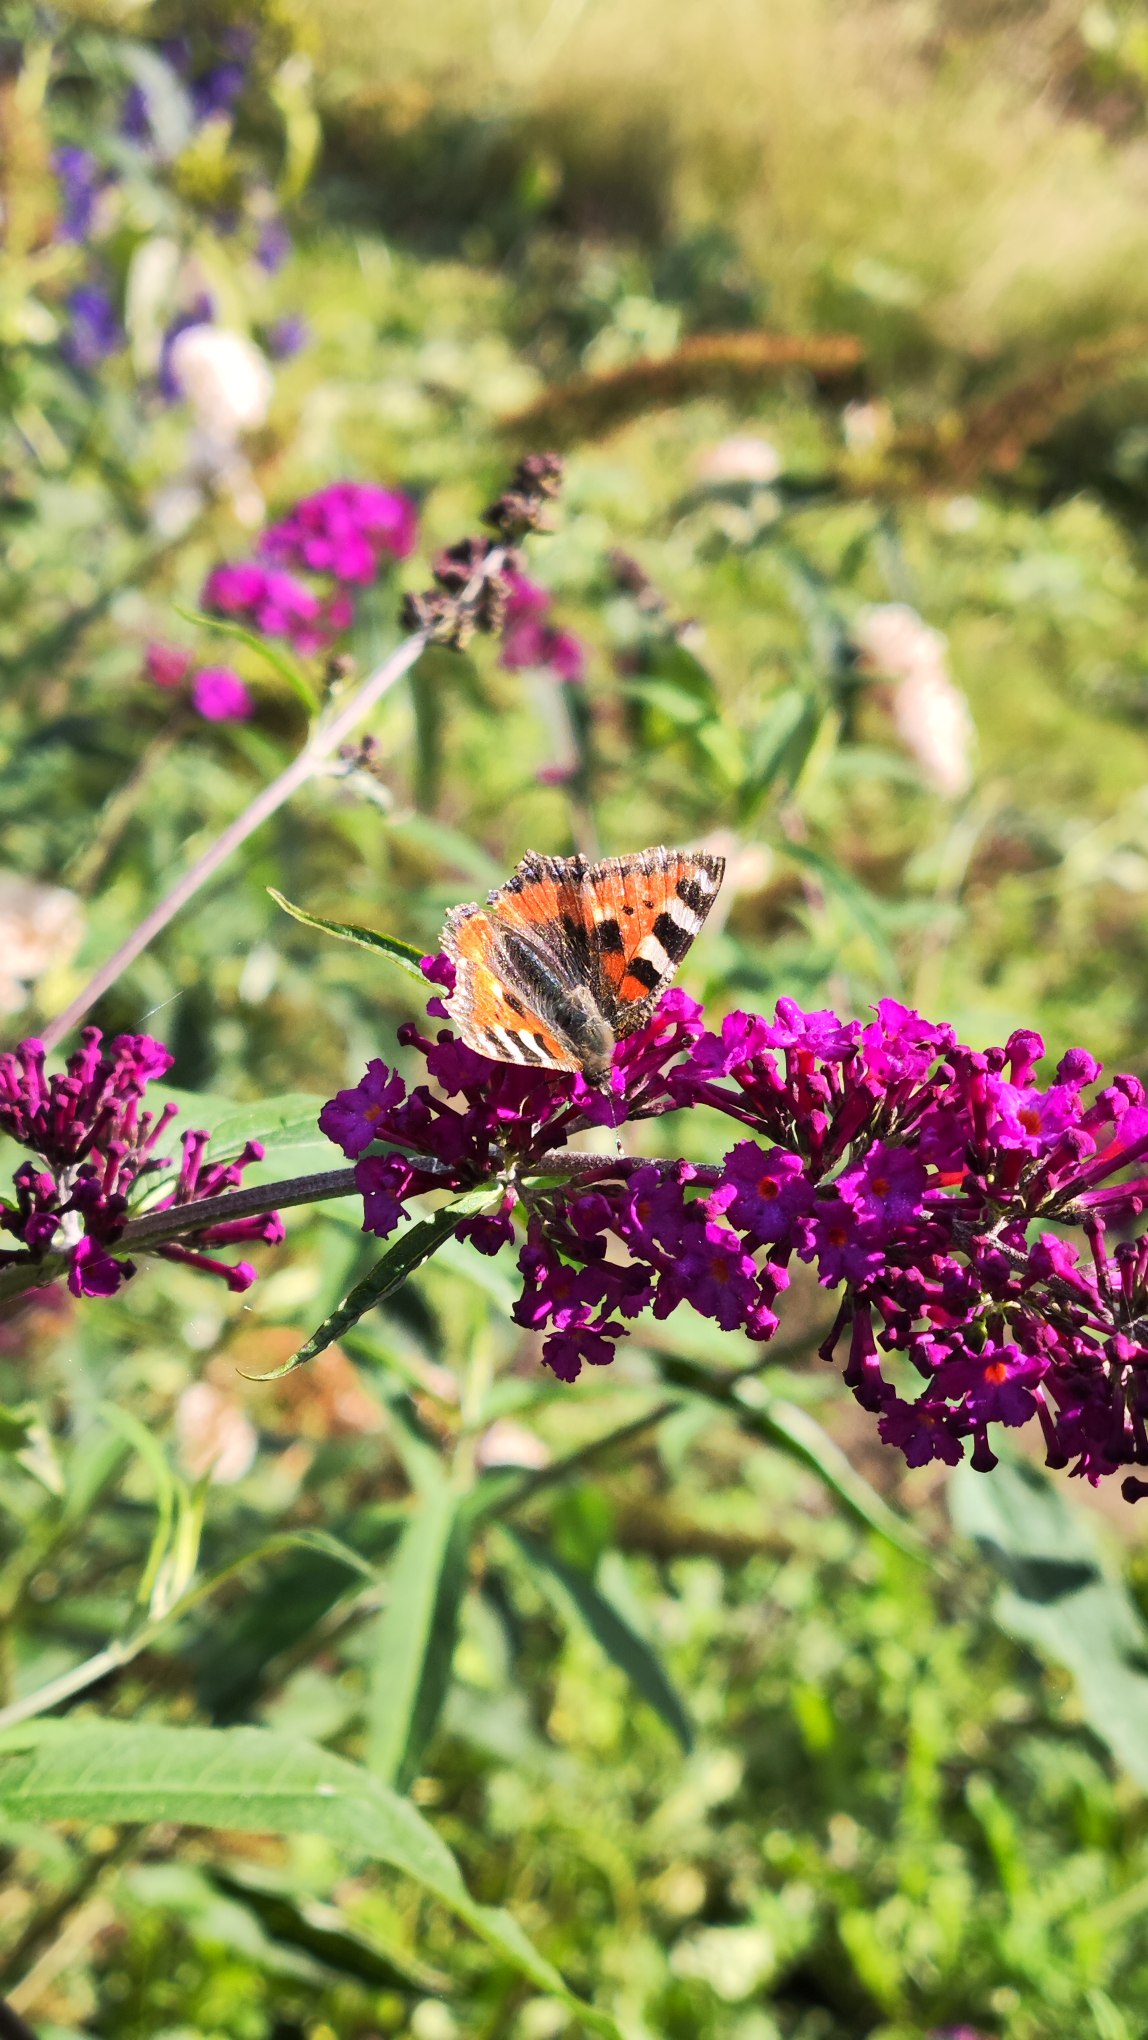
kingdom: Animalia
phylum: Arthropoda
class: Insecta
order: Lepidoptera
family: Nymphalidae
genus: Aglais
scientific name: Aglais urticae
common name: Nældens takvinge
